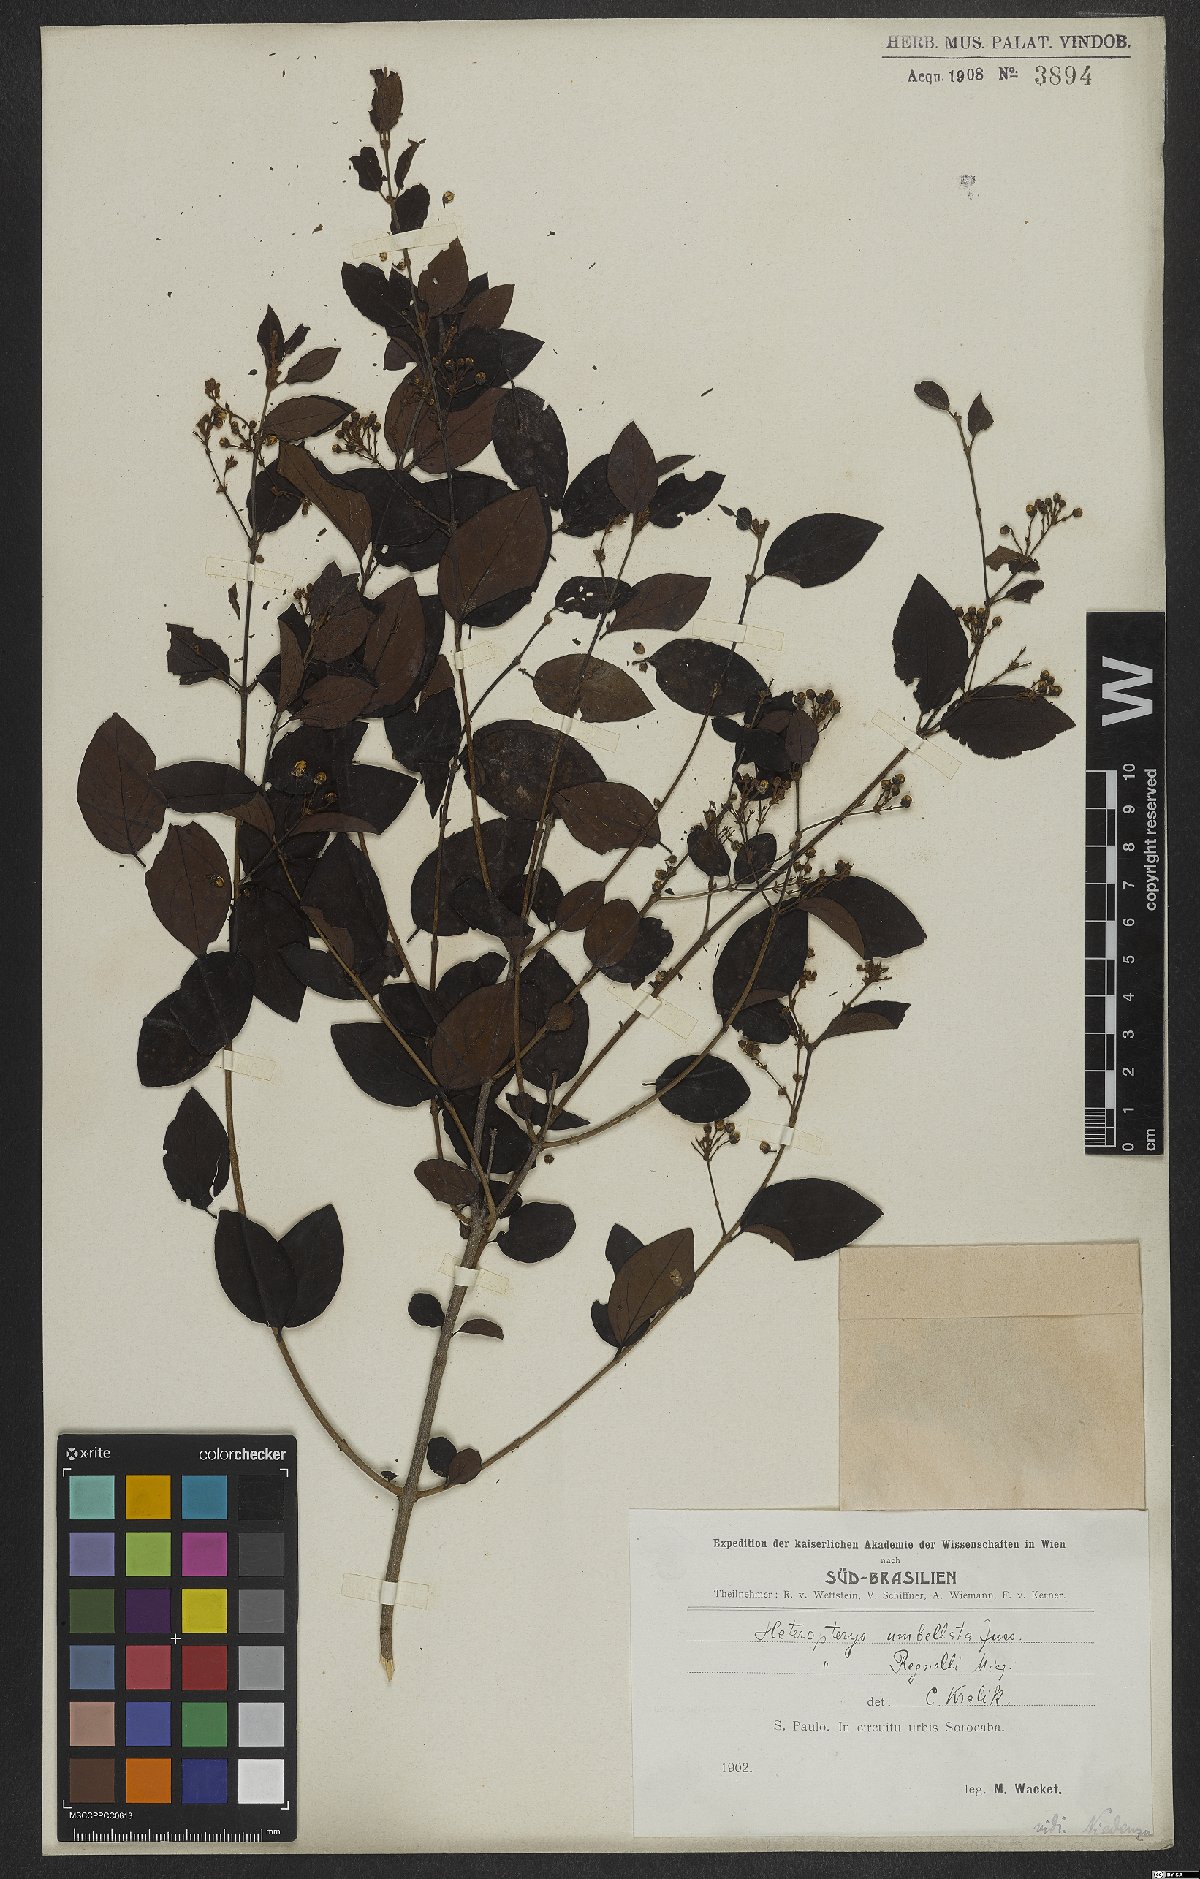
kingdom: Plantae
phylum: Tracheophyta
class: Magnoliopsida
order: Malpighiales
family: Malpighiaceae
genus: Heteropterys
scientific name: Heteropterys umbellata
